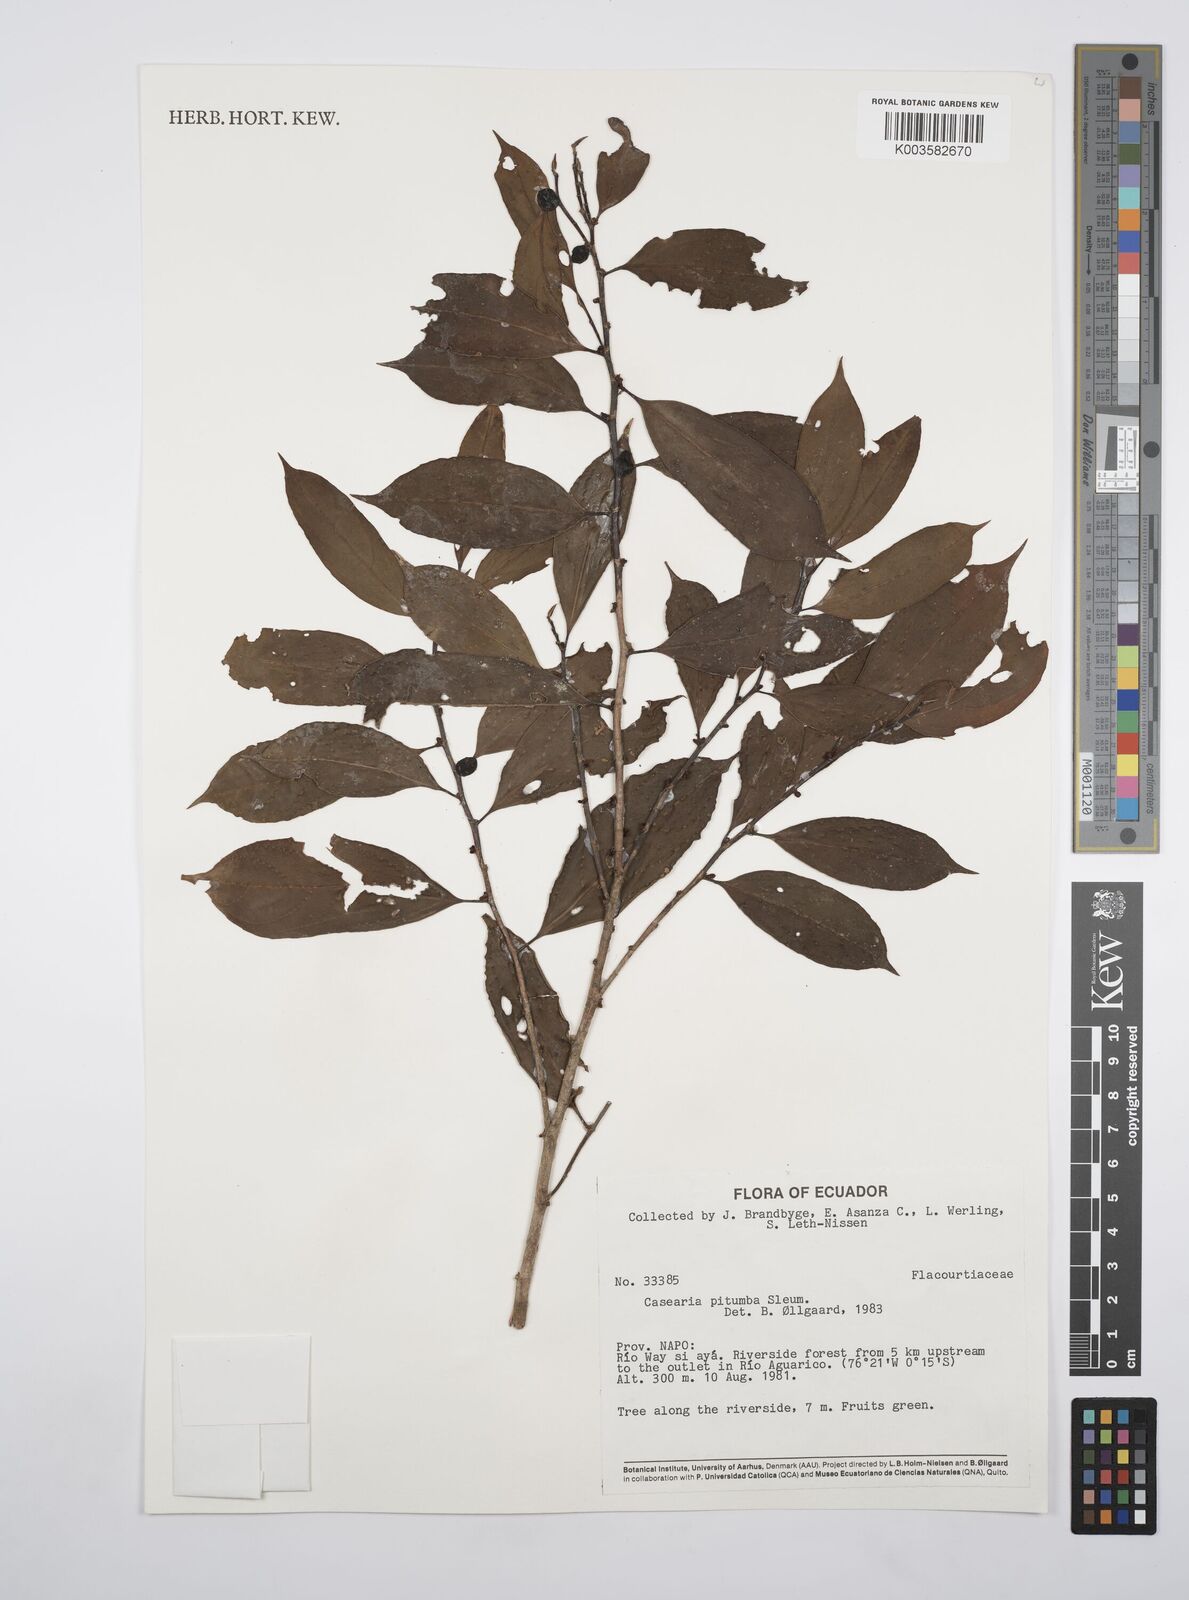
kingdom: Plantae
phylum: Tracheophyta
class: Magnoliopsida
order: Malpighiales
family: Salicaceae
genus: Casearia
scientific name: Casearia pitumba
